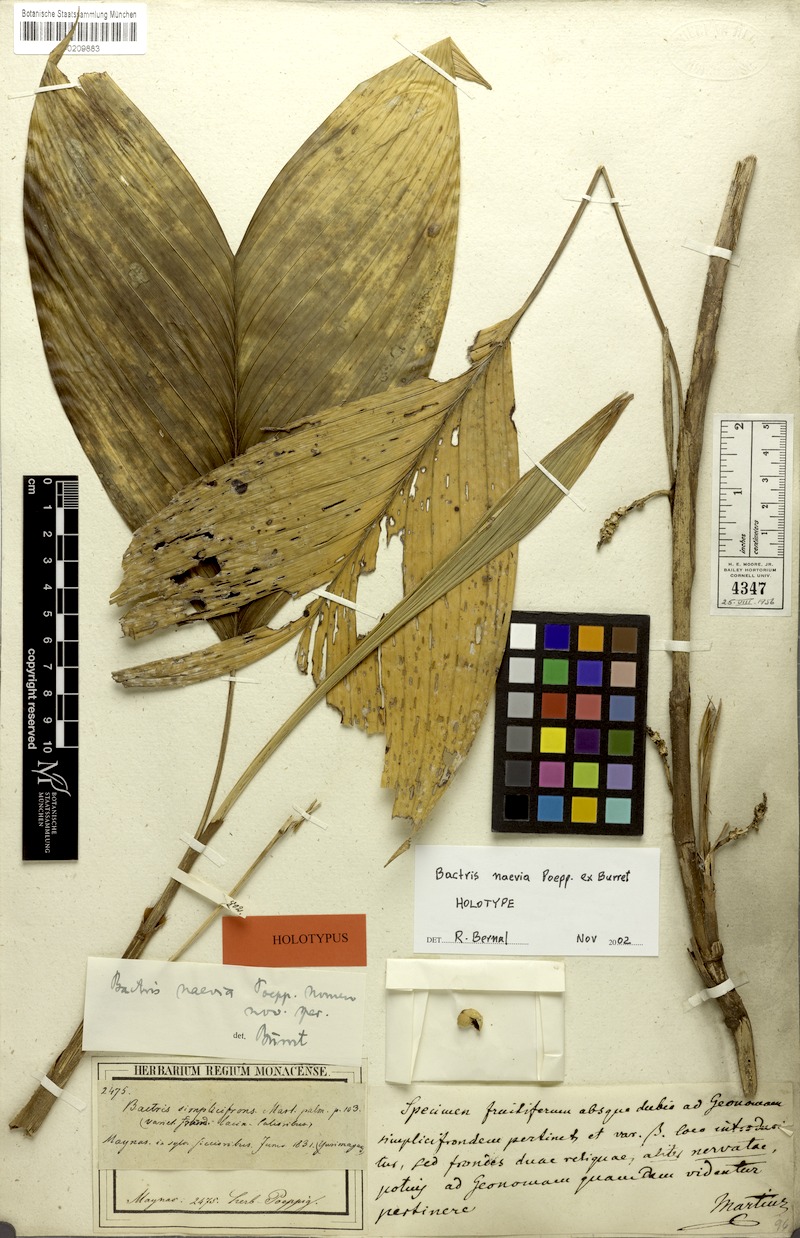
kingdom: Plantae
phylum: Tracheophyta
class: Liliopsida
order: Arecales
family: Arecaceae
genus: Bactris
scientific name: Bactris simplicifrons
